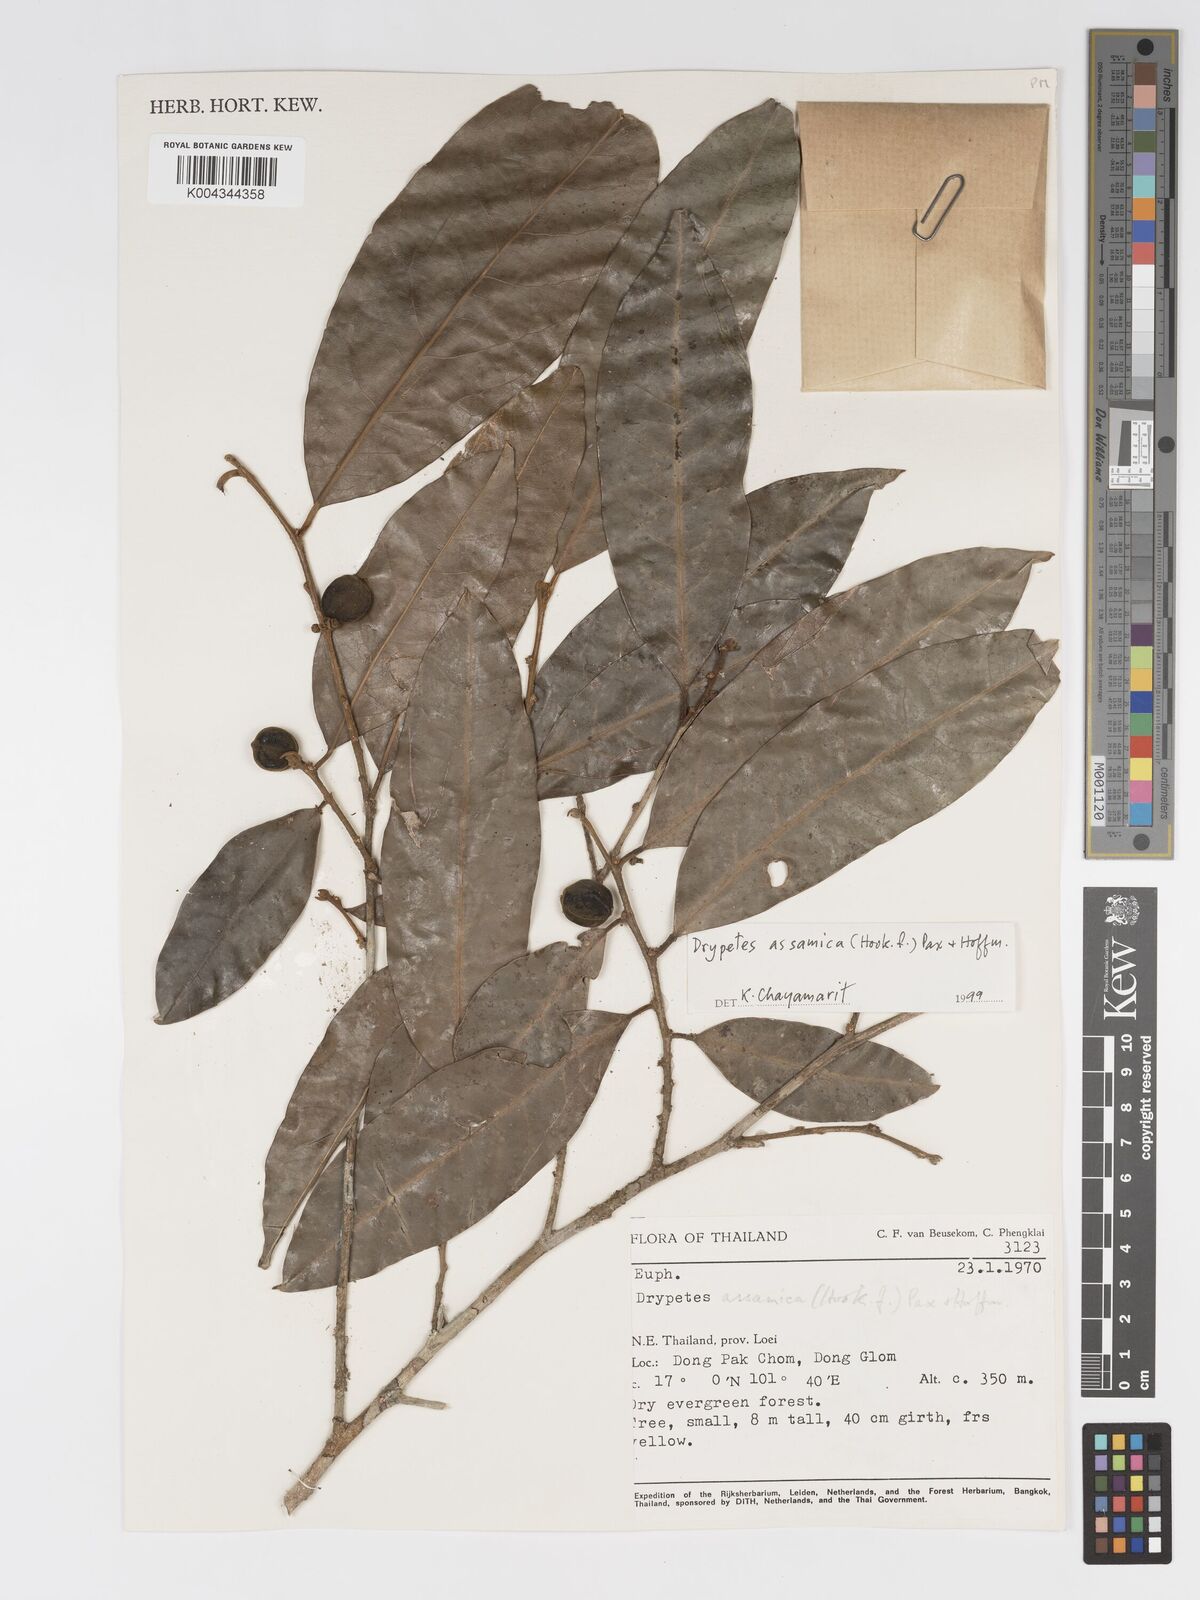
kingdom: Plantae
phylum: Tracheophyta
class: Magnoliopsida
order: Malpighiales
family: Putranjivaceae
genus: Drypetes
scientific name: Drypetes assamica
